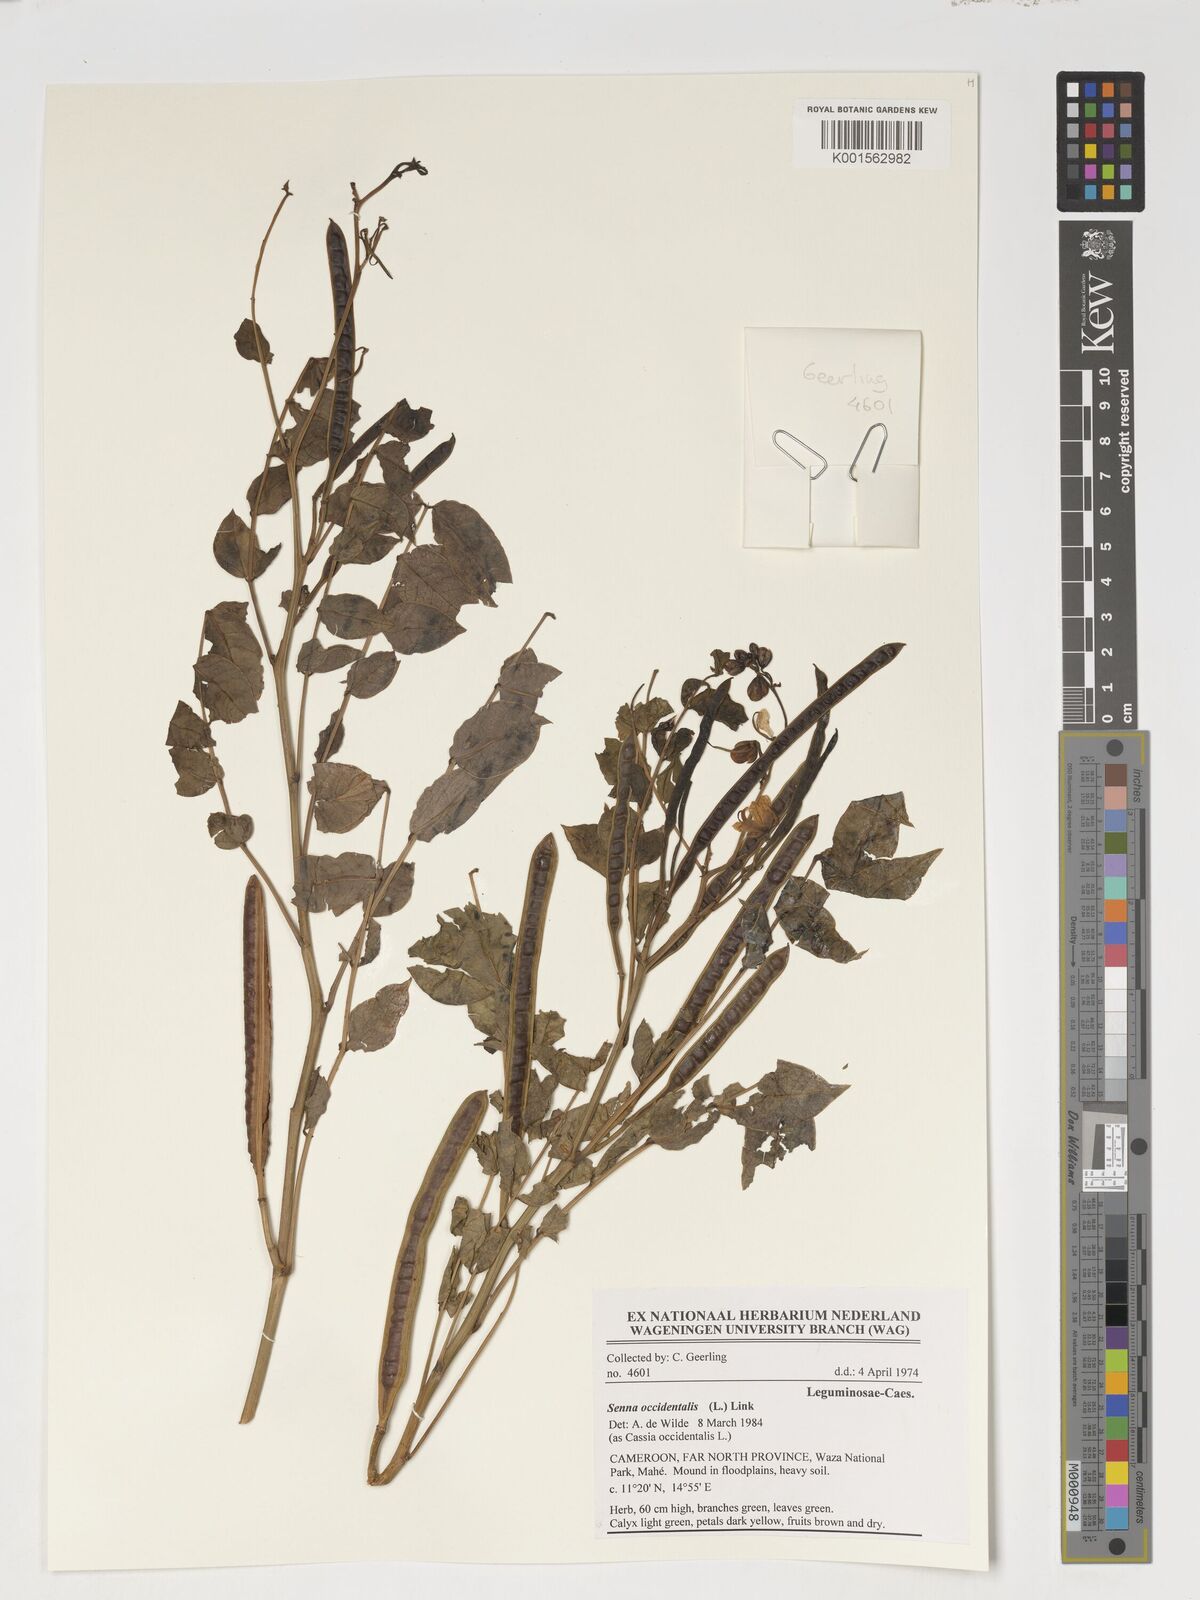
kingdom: Plantae
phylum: Tracheophyta
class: Magnoliopsida
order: Fabales
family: Fabaceae
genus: Senna
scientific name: Senna occidentalis
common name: Septicweed
